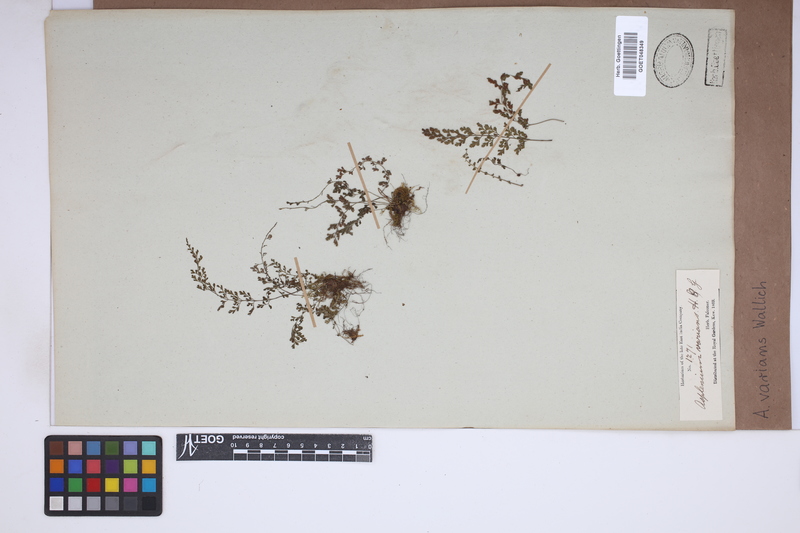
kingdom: Plantae
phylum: Tracheophyta
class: Polypodiopsida
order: Polypodiales
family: Aspleniaceae
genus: Asplenium
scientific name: Asplenium laciniatum
